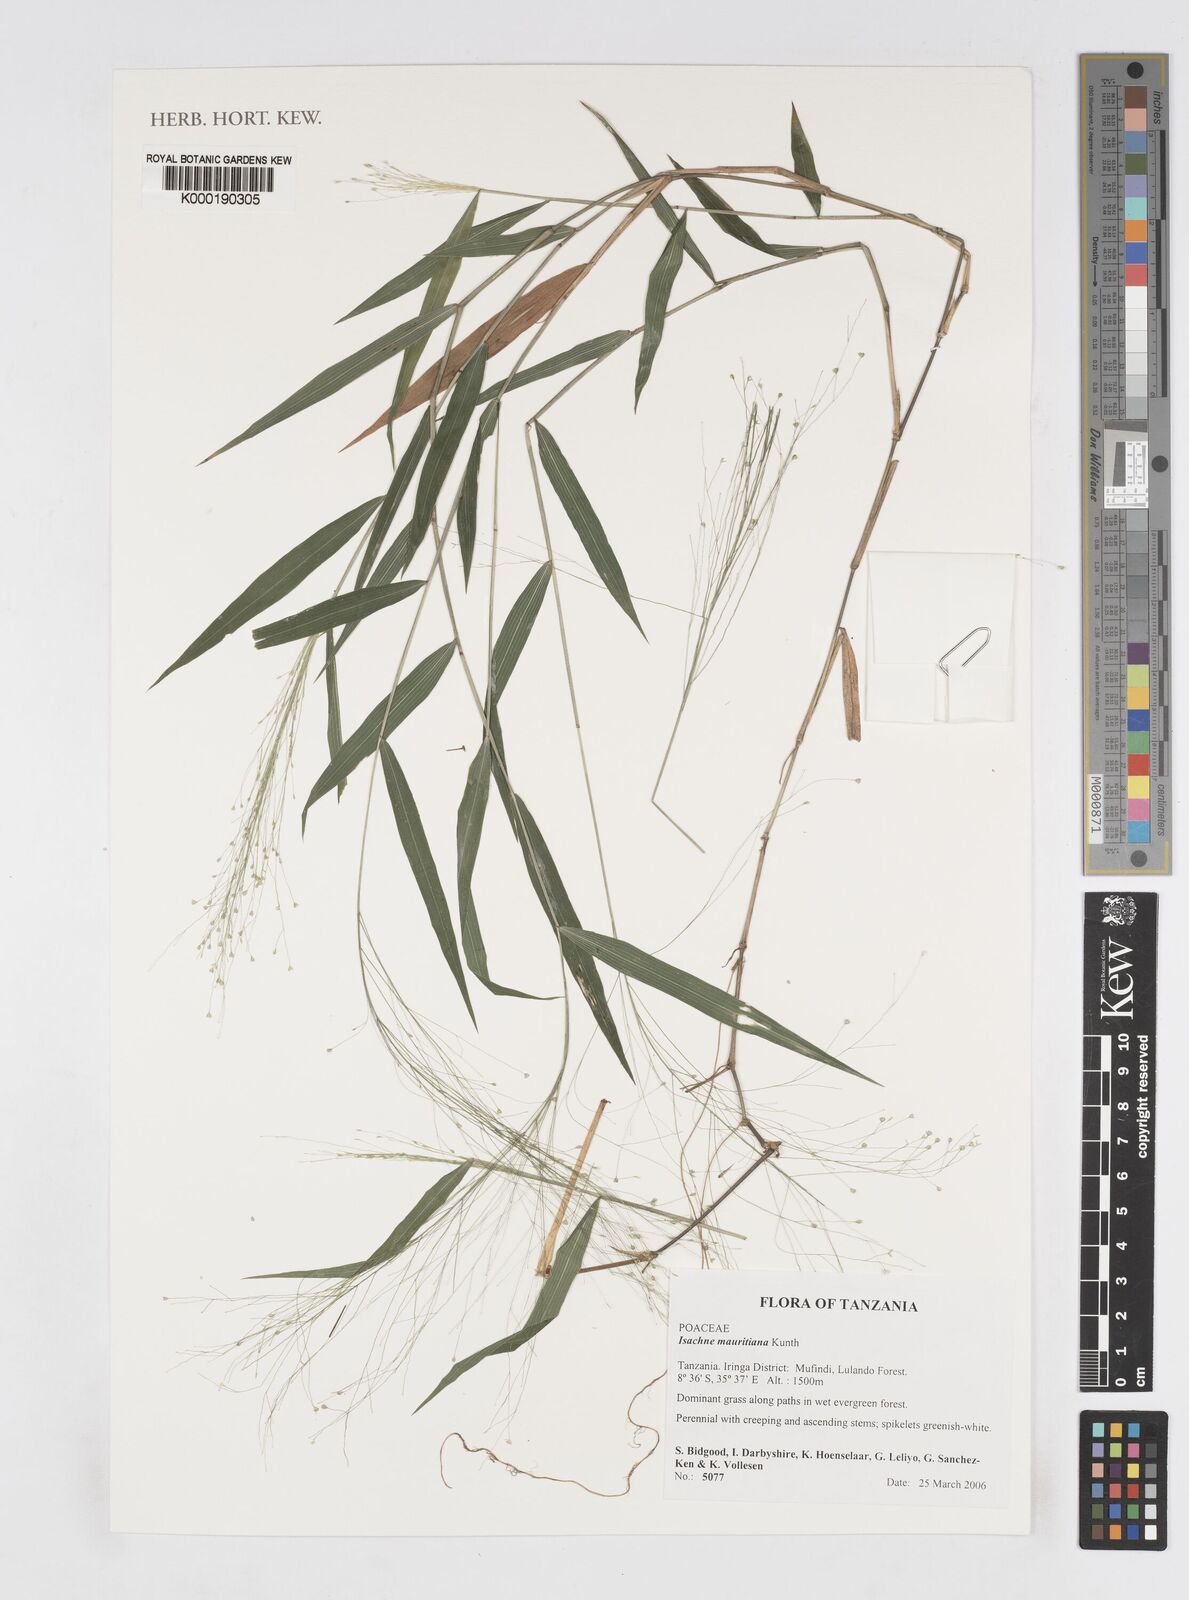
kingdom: Plantae
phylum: Tracheophyta
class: Liliopsida
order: Poales
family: Poaceae
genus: Isachne
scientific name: Isachne mauritiana
